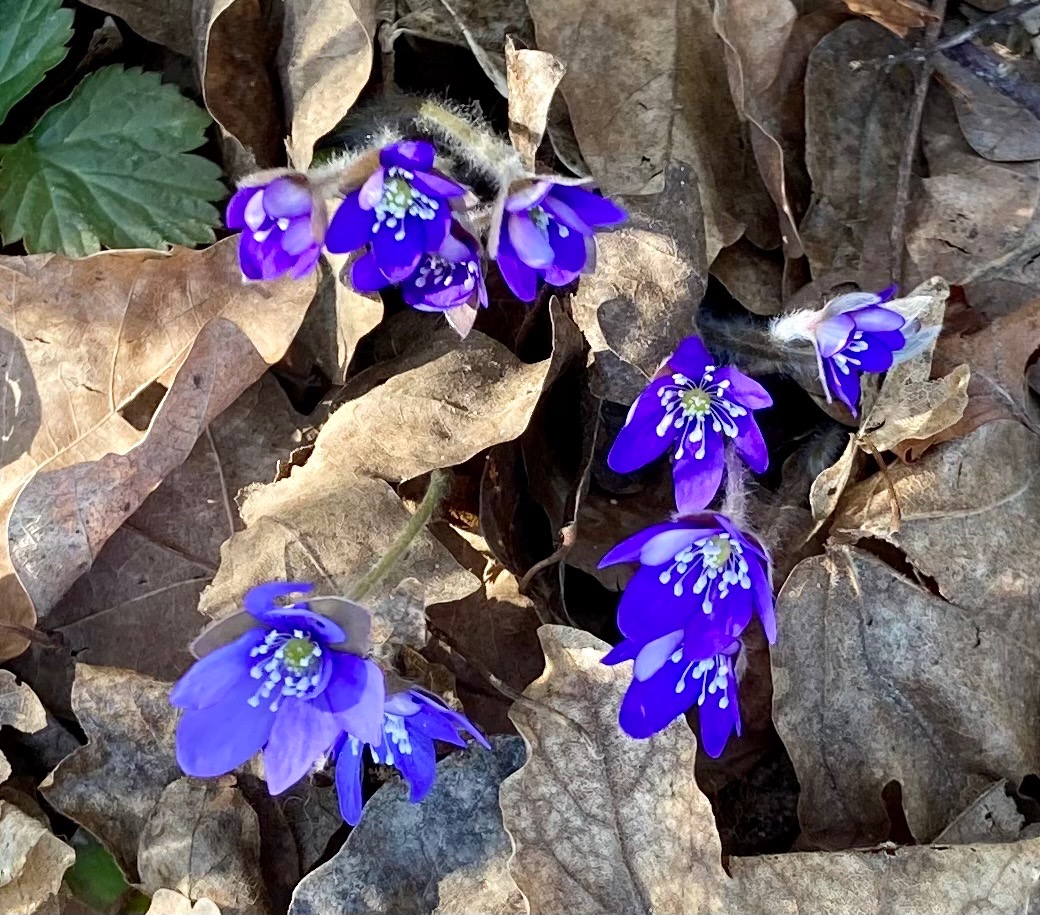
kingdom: Plantae
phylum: Tracheophyta
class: Magnoliopsida
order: Ranunculales
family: Ranunculaceae
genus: Hepatica
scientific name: Hepatica nobilis
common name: Blå anemone
